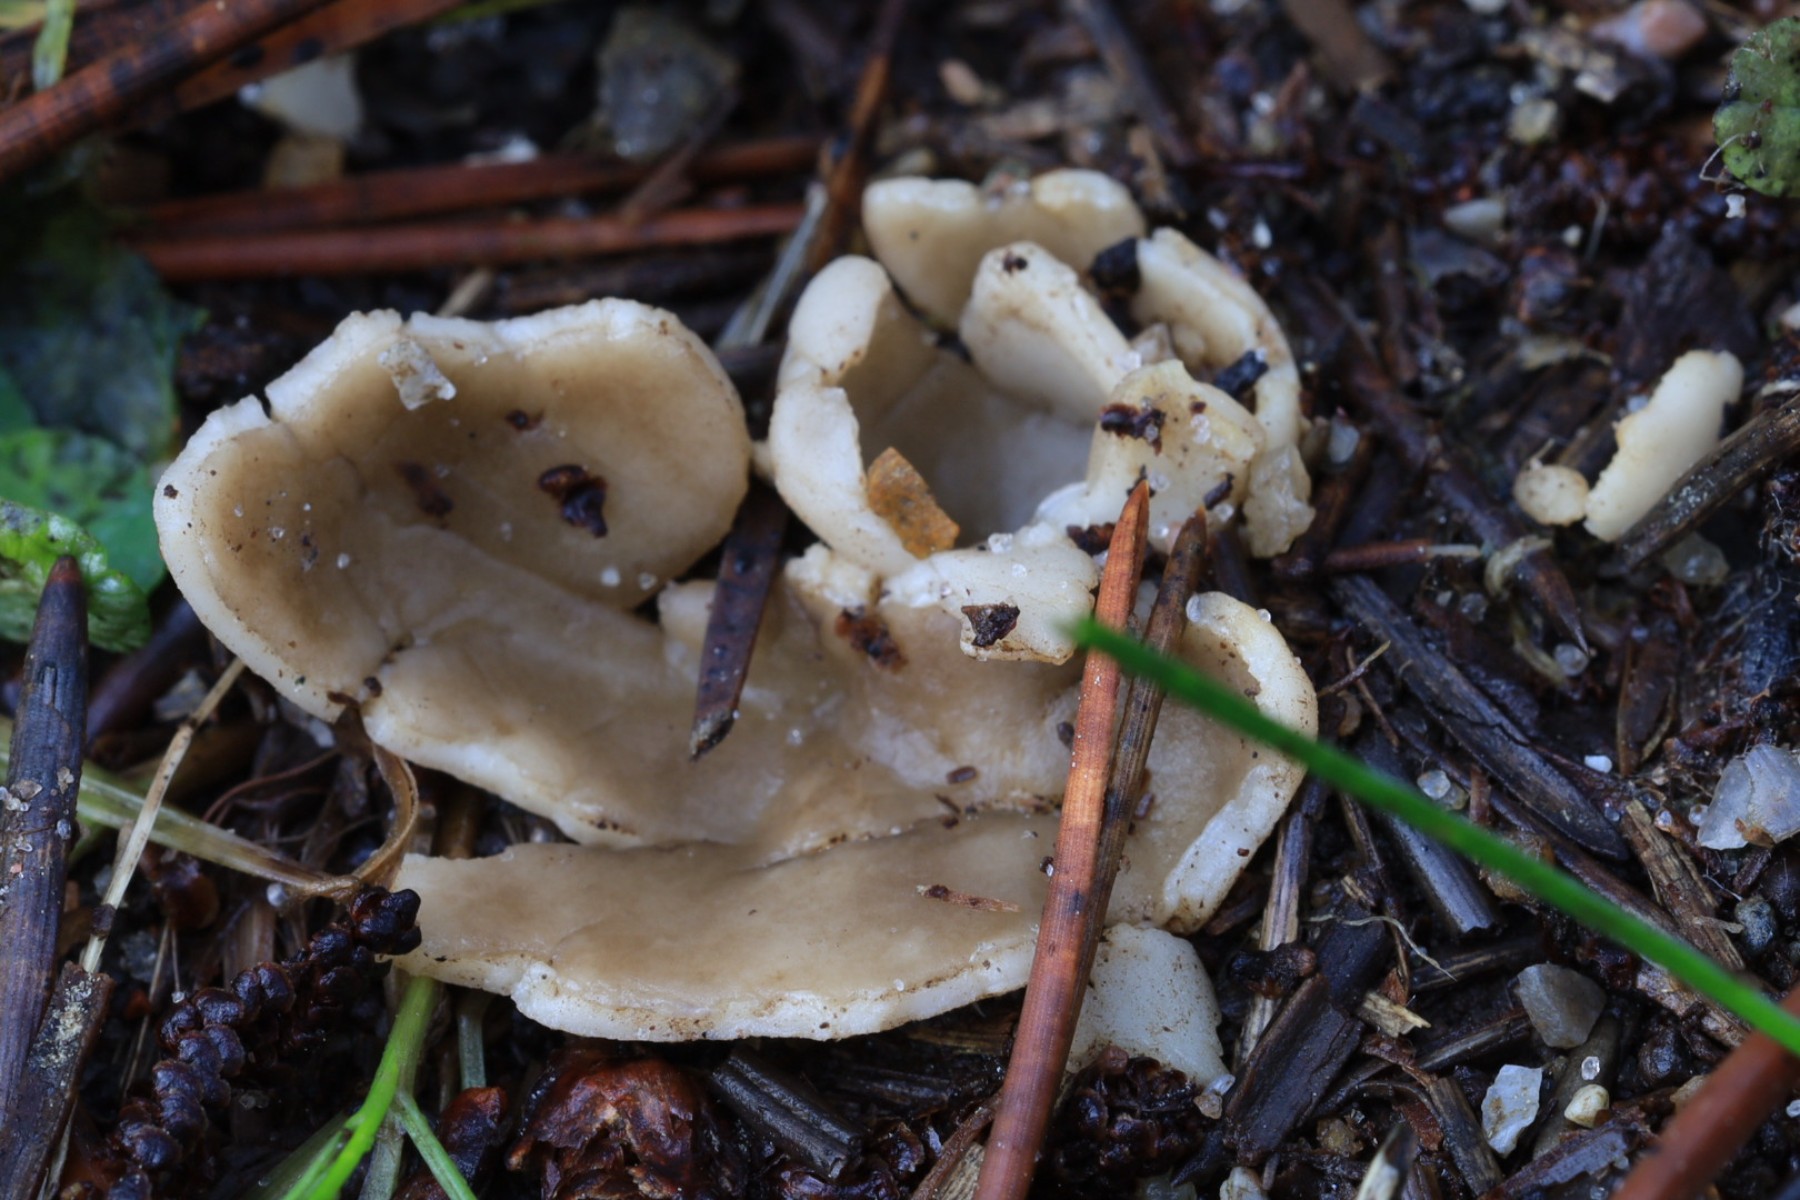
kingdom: Fungi
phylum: Ascomycota
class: Pezizomycetes
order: Pezizales
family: Helvellaceae
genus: Dissingia
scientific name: Dissingia leucomelaena
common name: sorthvid foldhat
